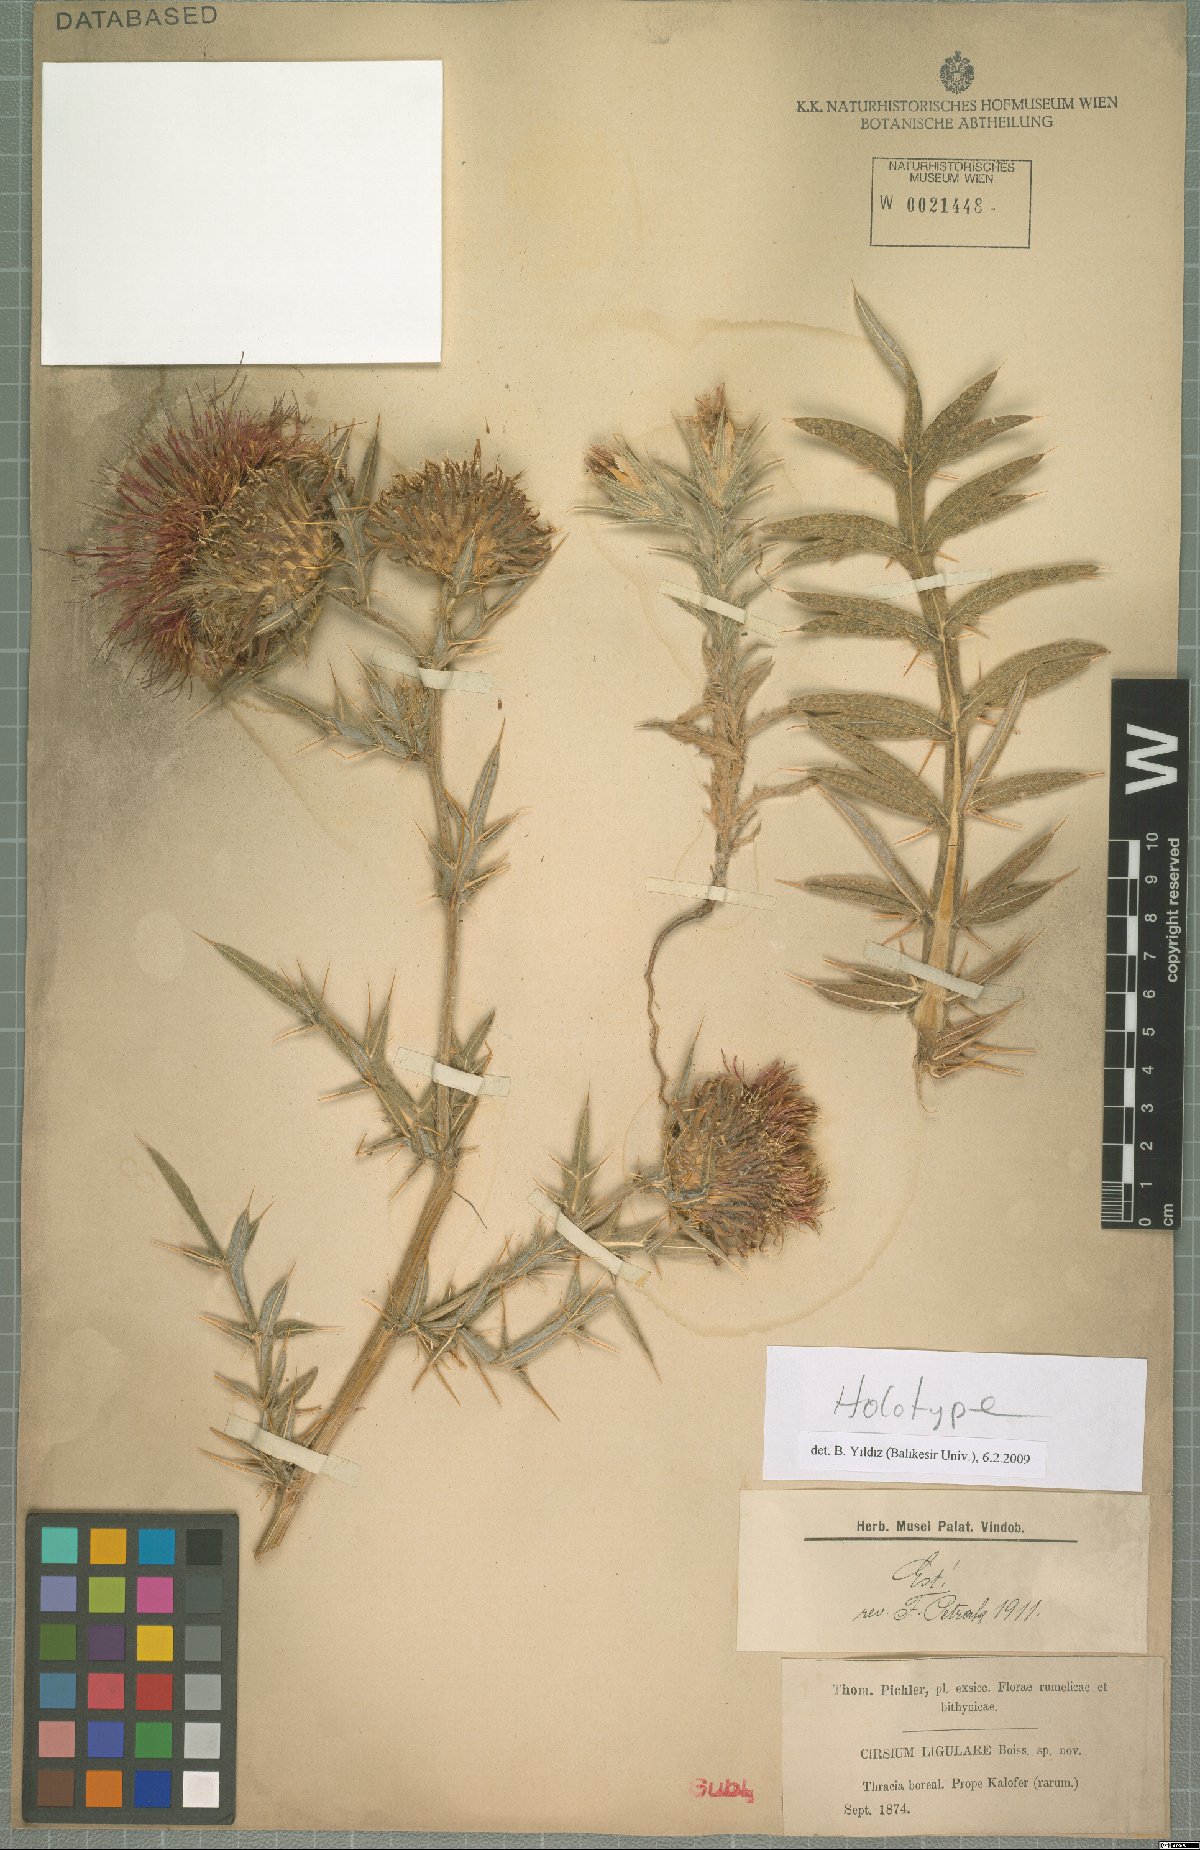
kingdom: Plantae
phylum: Tracheophyta
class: Magnoliopsida
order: Asterales
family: Asteraceae
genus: Lophiolepis
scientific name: Lophiolepis ligularis
